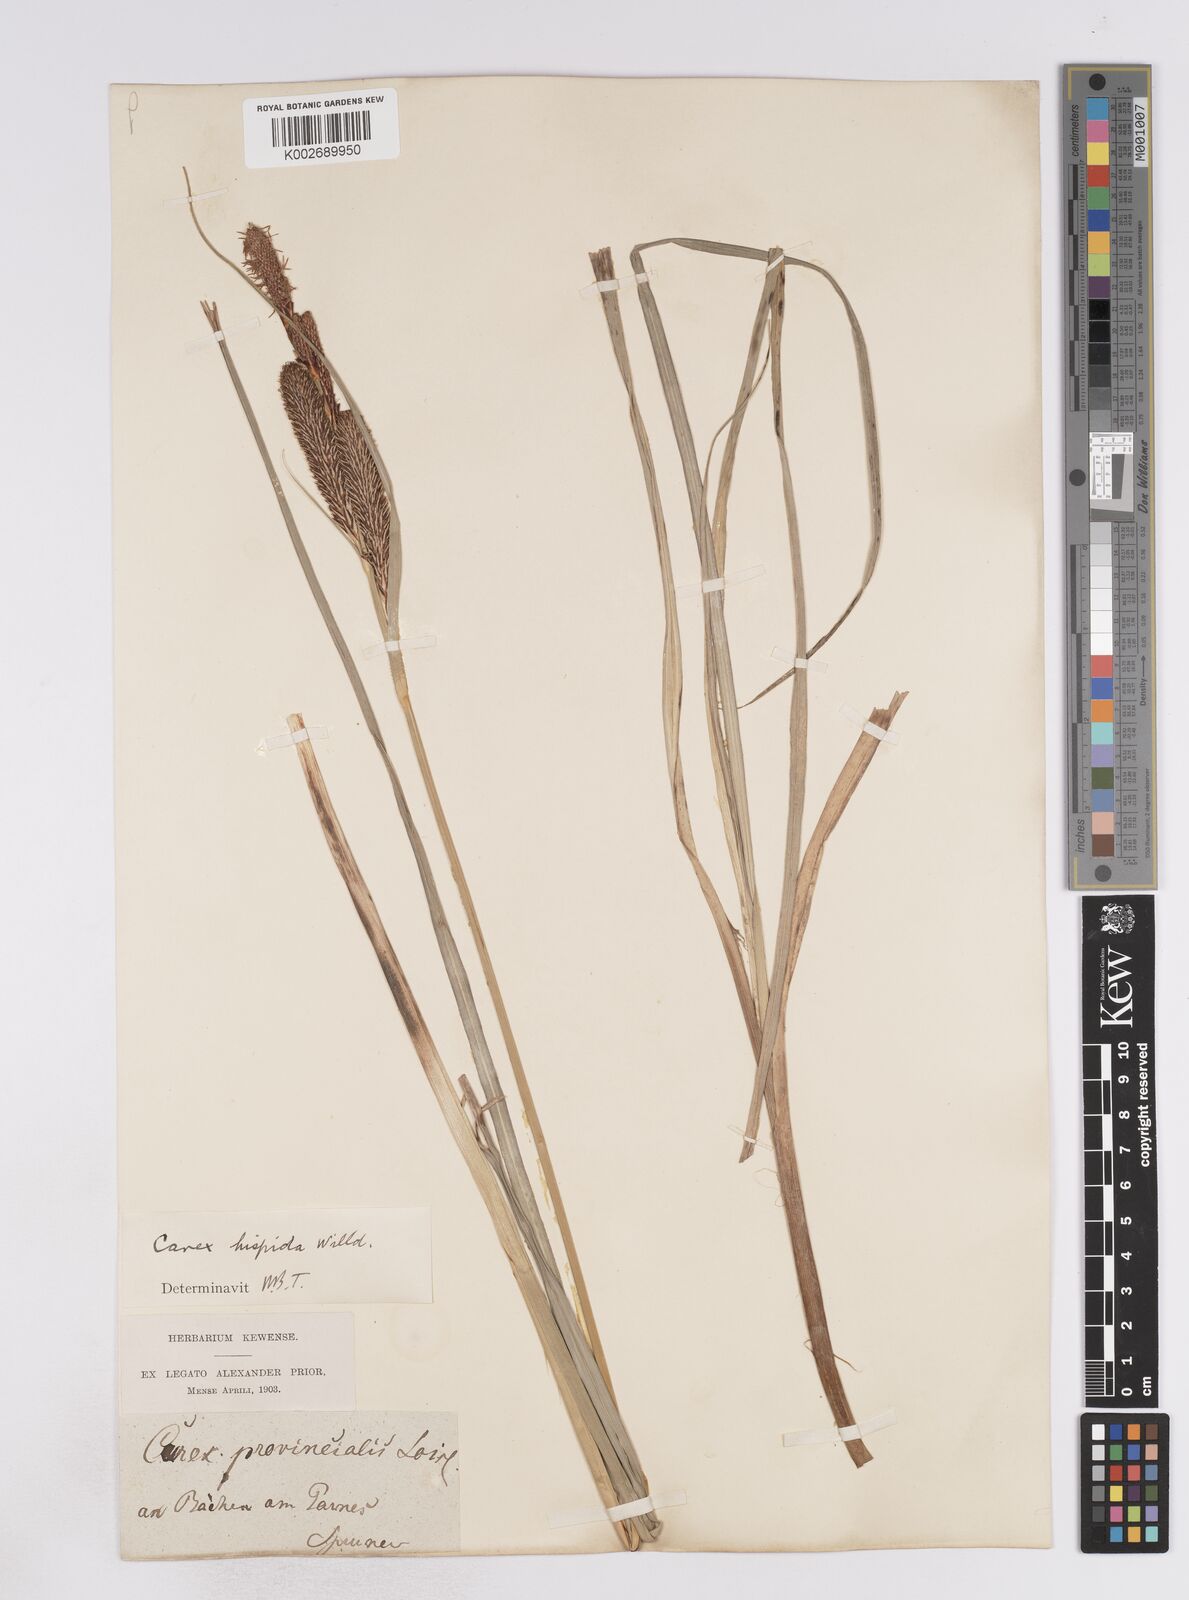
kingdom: Plantae
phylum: Tracheophyta
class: Liliopsida
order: Poales
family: Cyperaceae
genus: Carex
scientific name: Carex hispida
